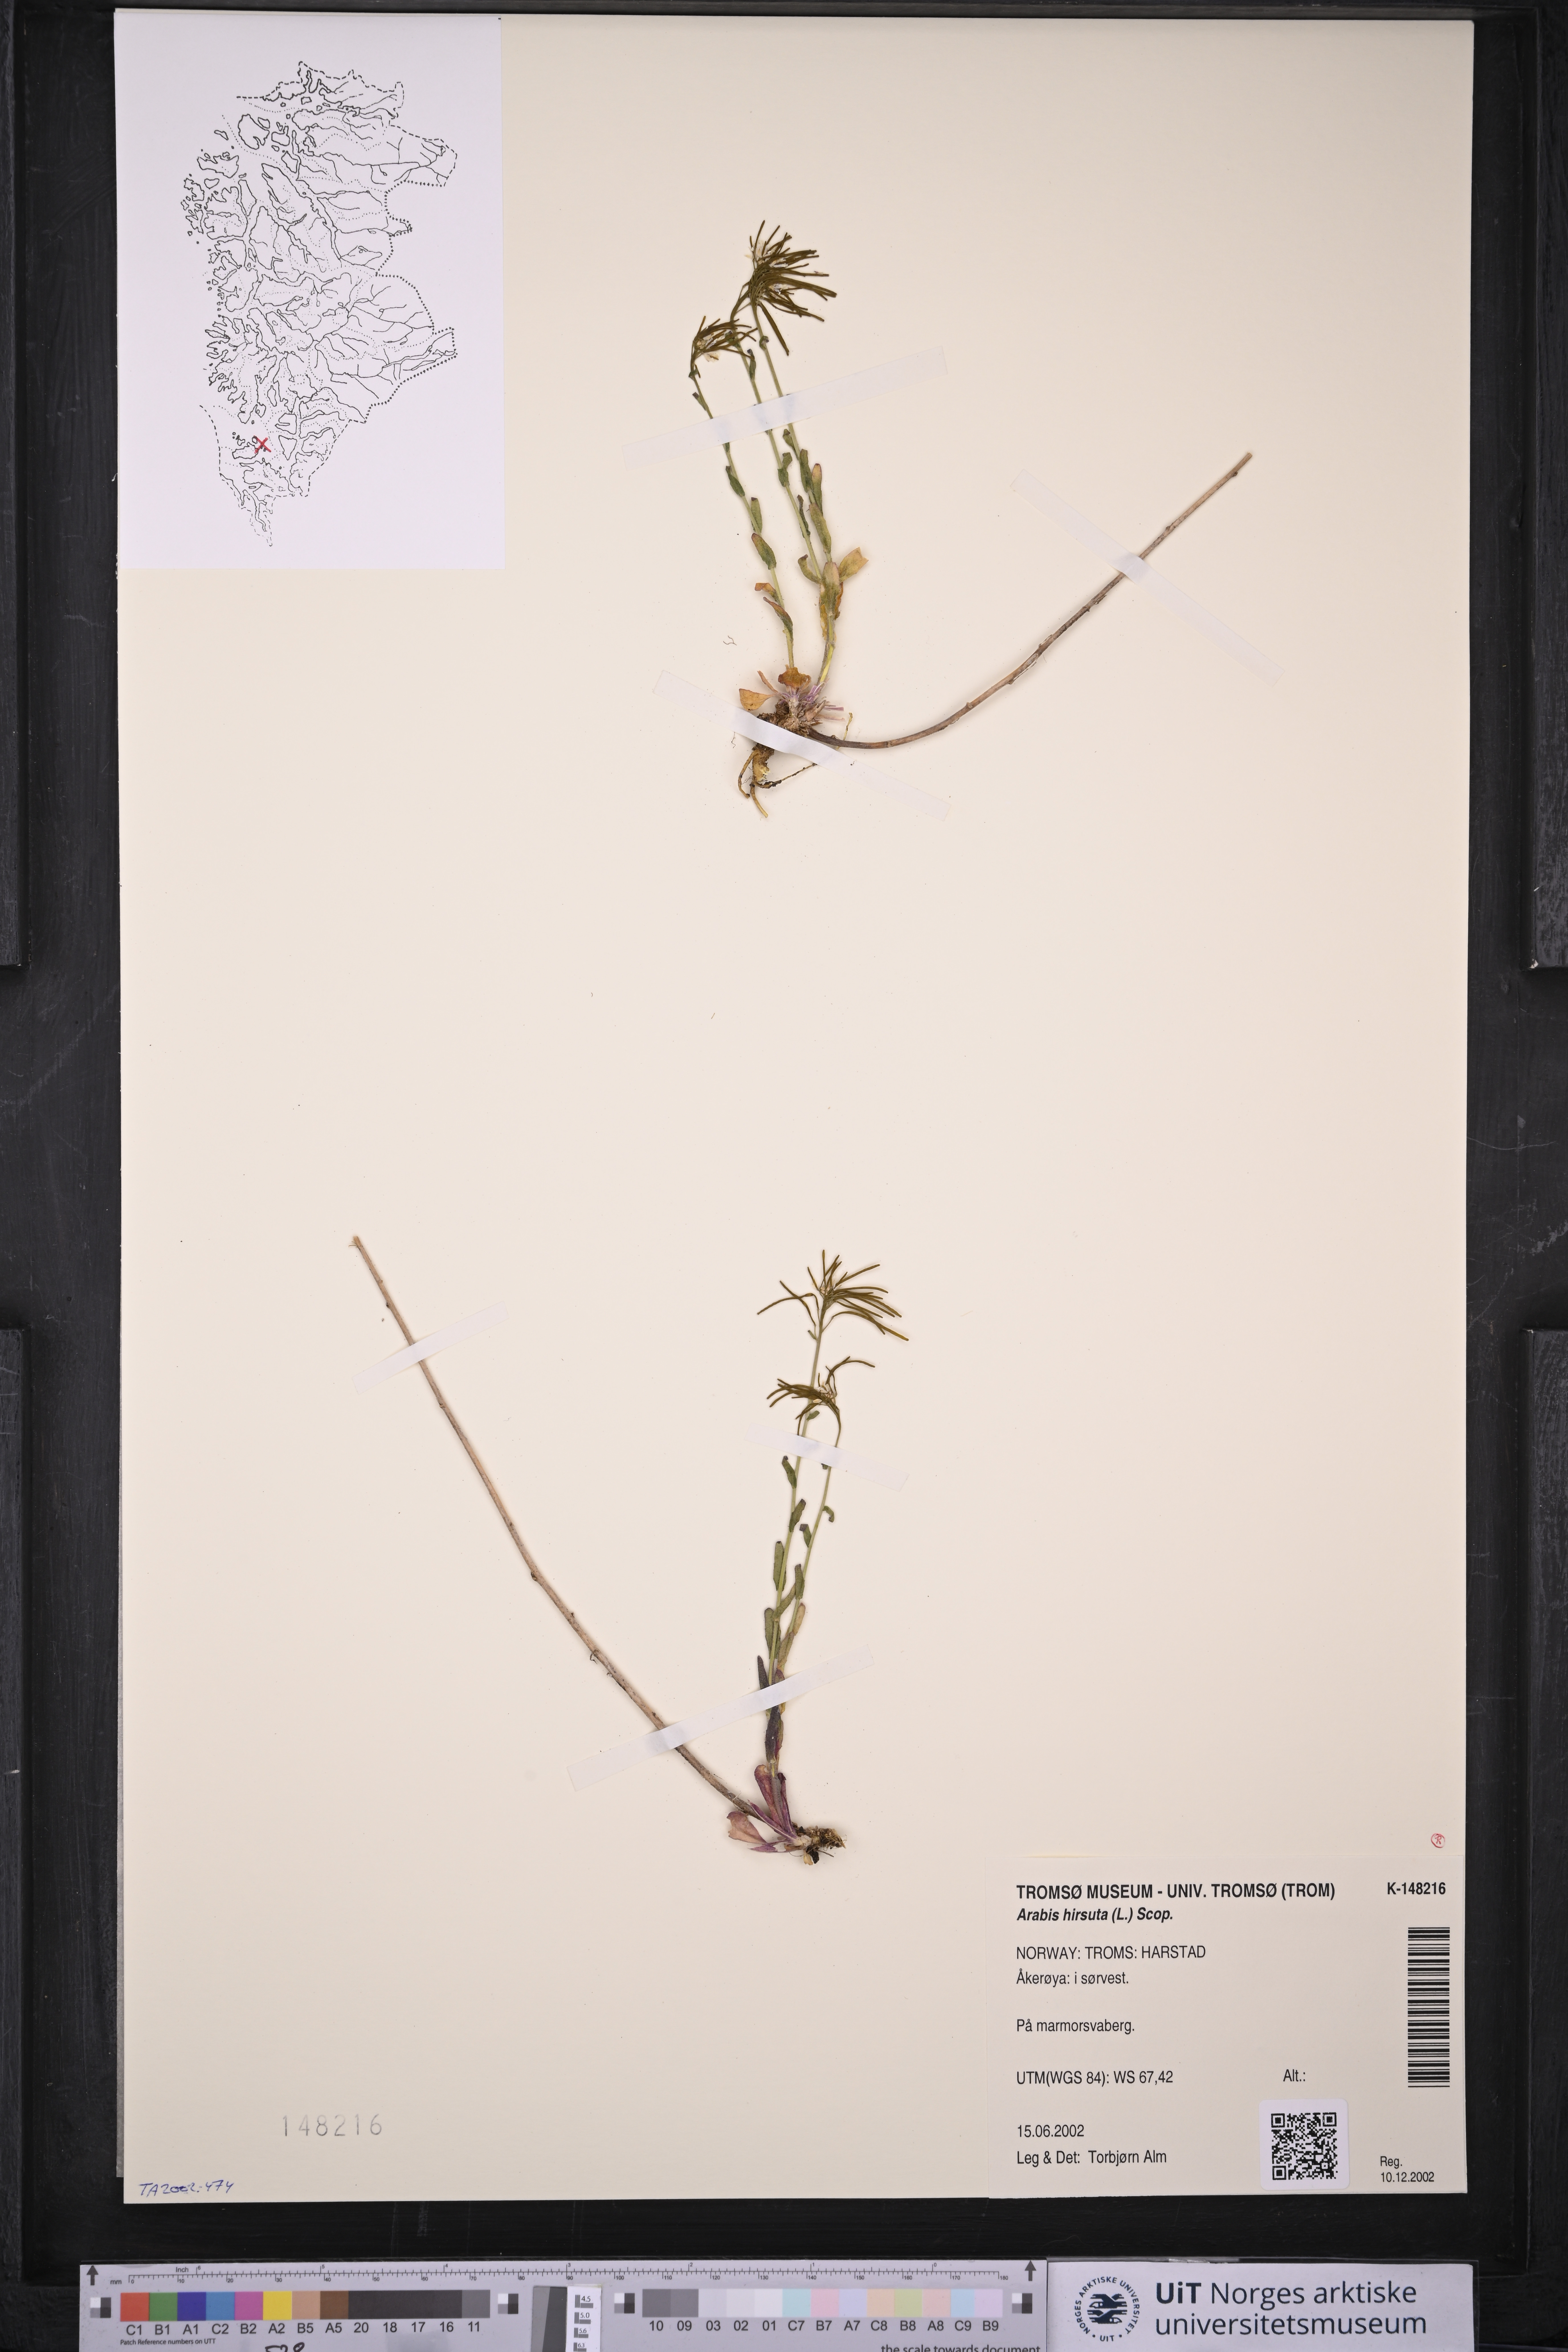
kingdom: Plantae
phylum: Tracheophyta
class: Magnoliopsida
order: Brassicales
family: Brassicaceae
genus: Arabis
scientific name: Arabis hirsuta
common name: Hairy rock-cress
